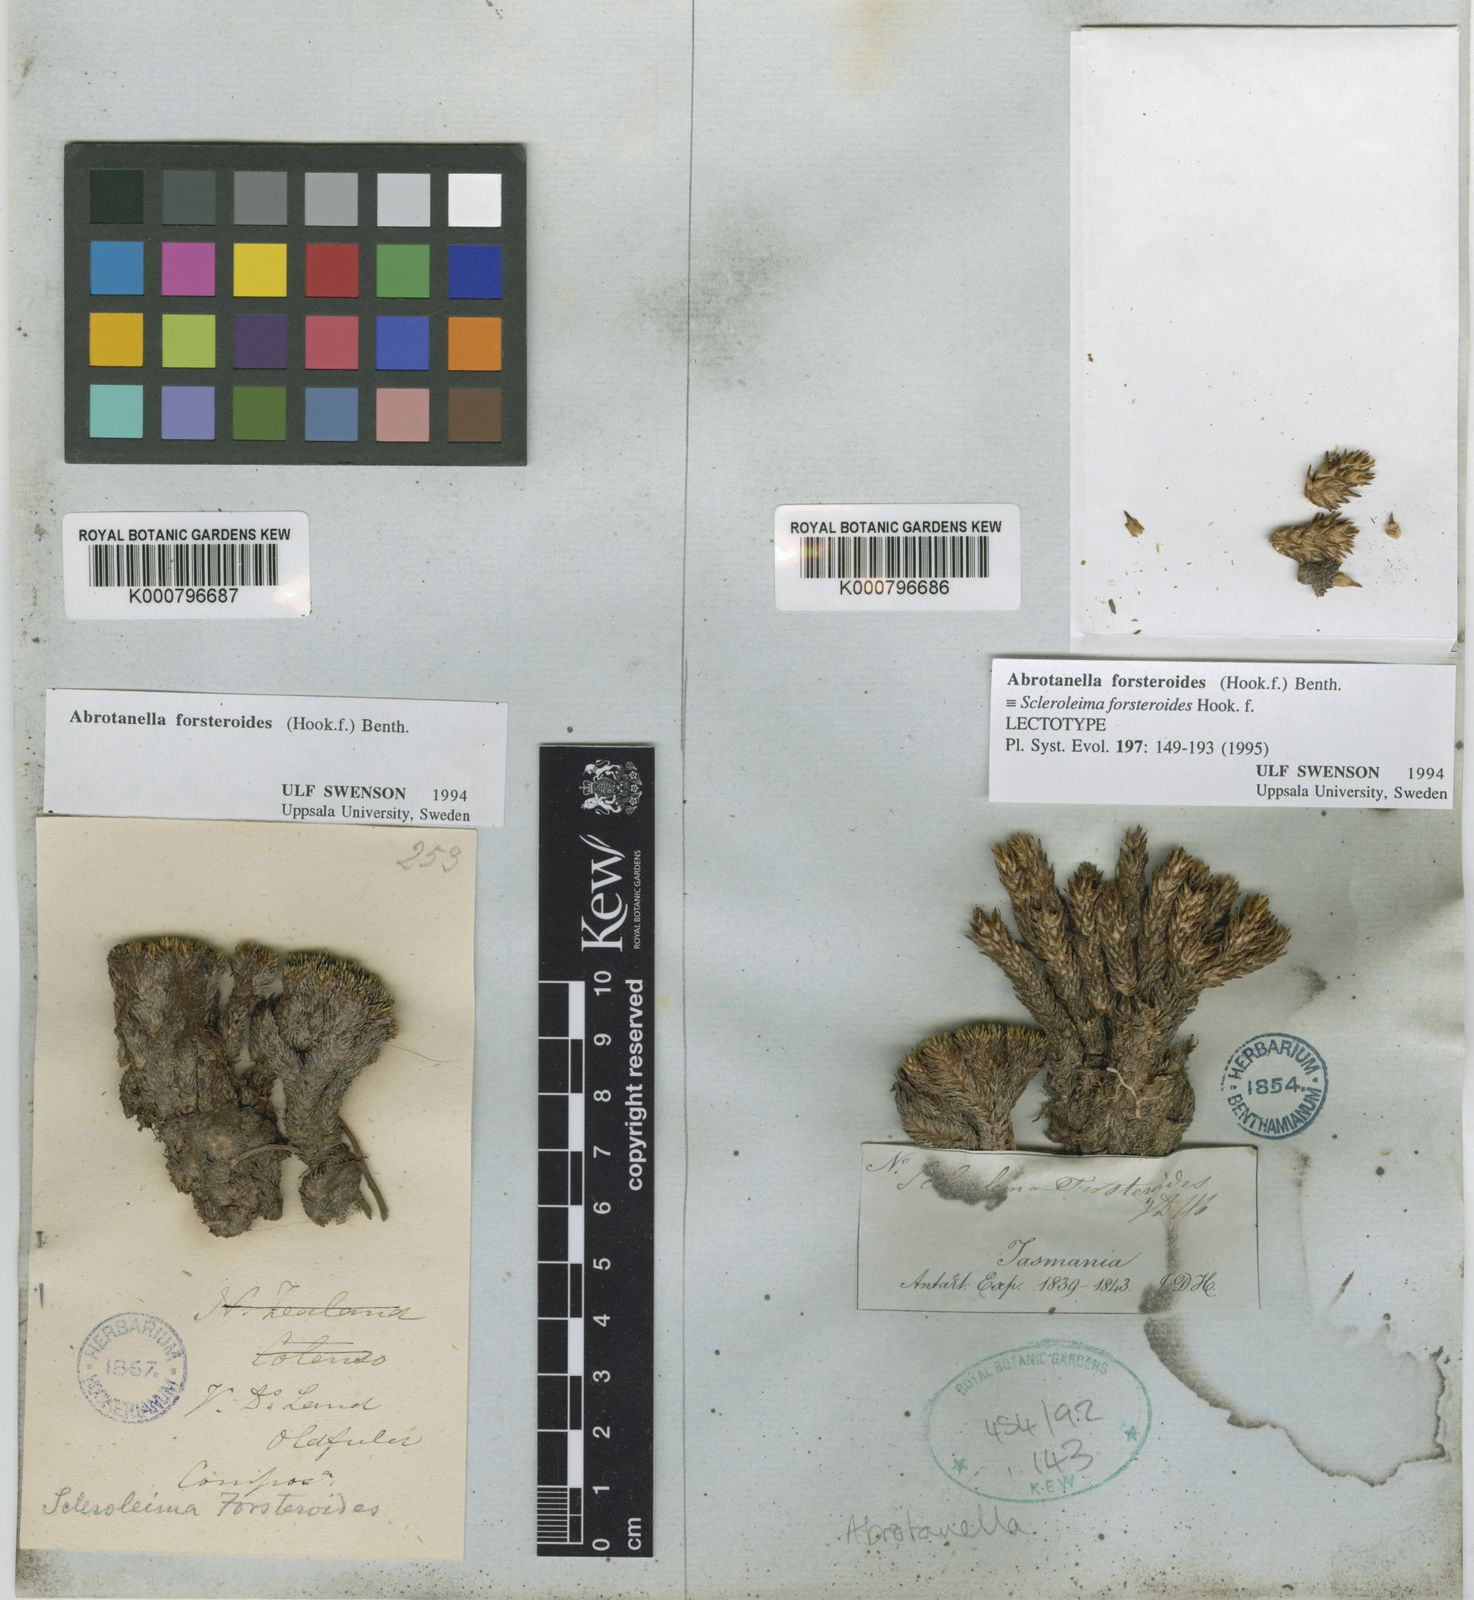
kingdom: Plantae
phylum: Tracheophyta
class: Magnoliopsida
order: Asterales
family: Asteraceae
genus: Abrotanella
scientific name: Abrotanella
